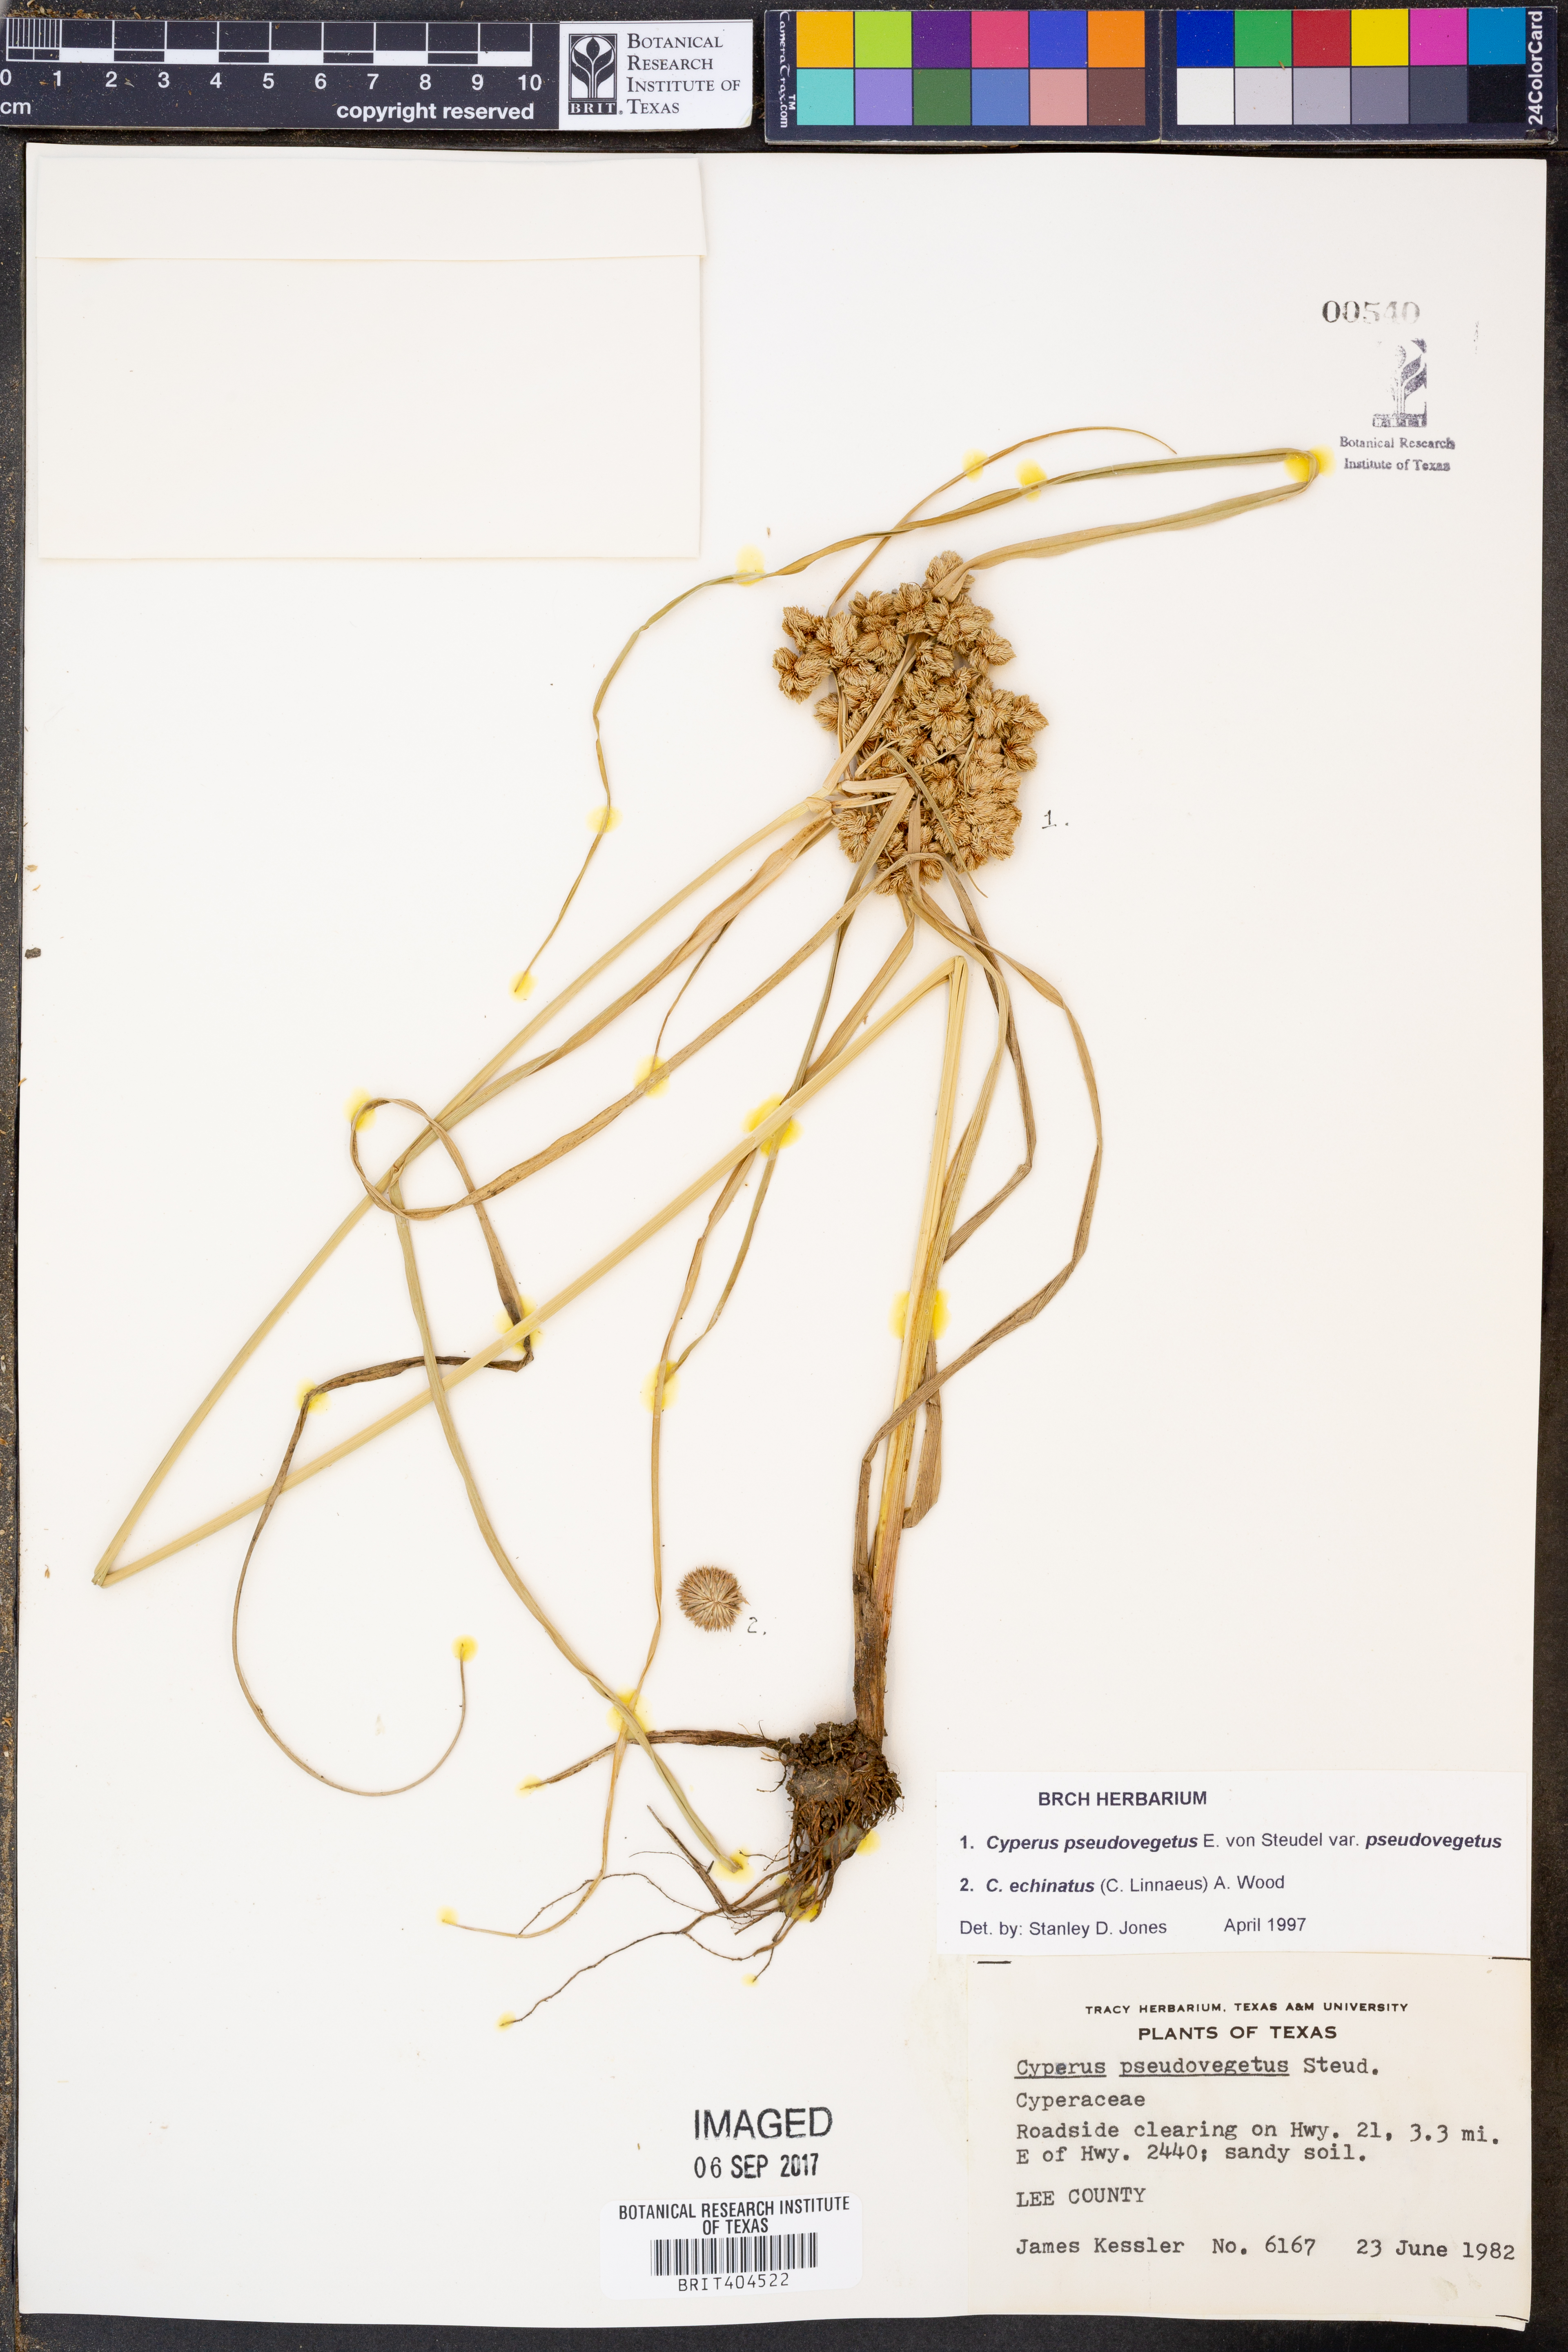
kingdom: Plantae
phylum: Tracheophyta
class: Liliopsida
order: Poales
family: Cyperaceae
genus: Cyperus
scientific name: Cyperus pseudovegetus
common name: Marsh flat sedge
